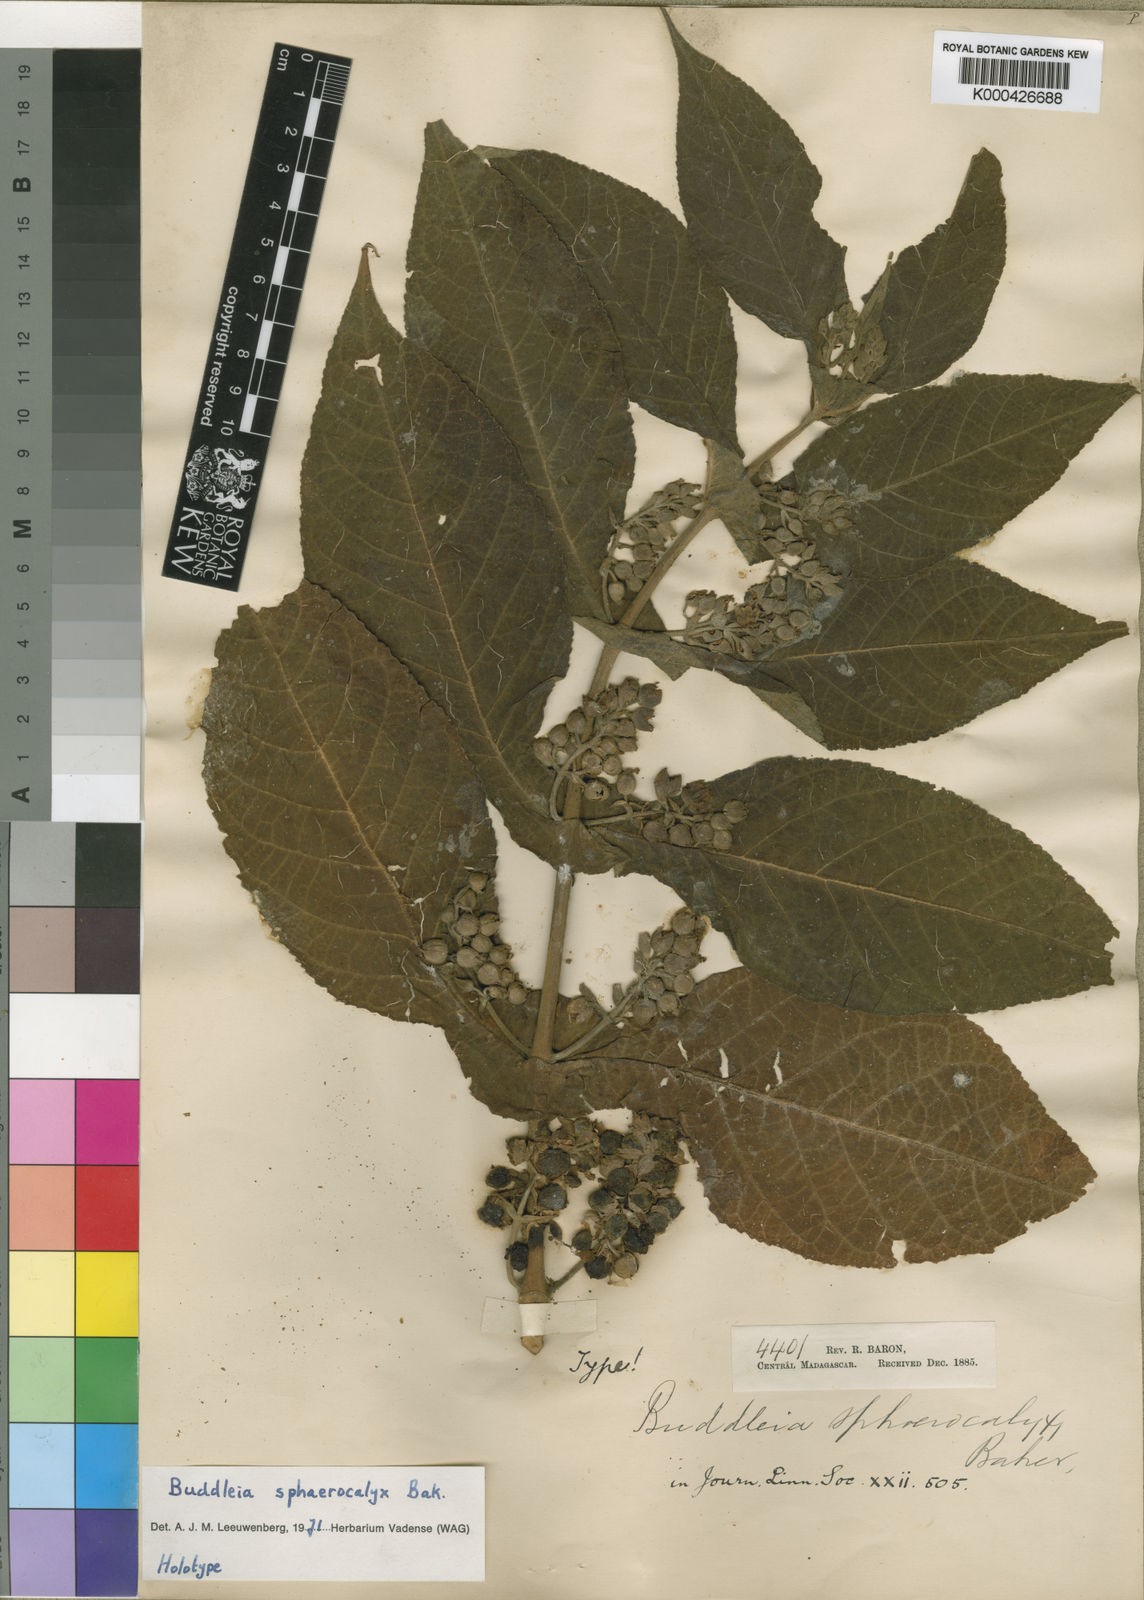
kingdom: Plantae
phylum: Tracheophyta
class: Magnoliopsida
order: Lamiales
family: Scrophulariaceae
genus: Buddleja
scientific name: Buddleja sphaerocalyx
